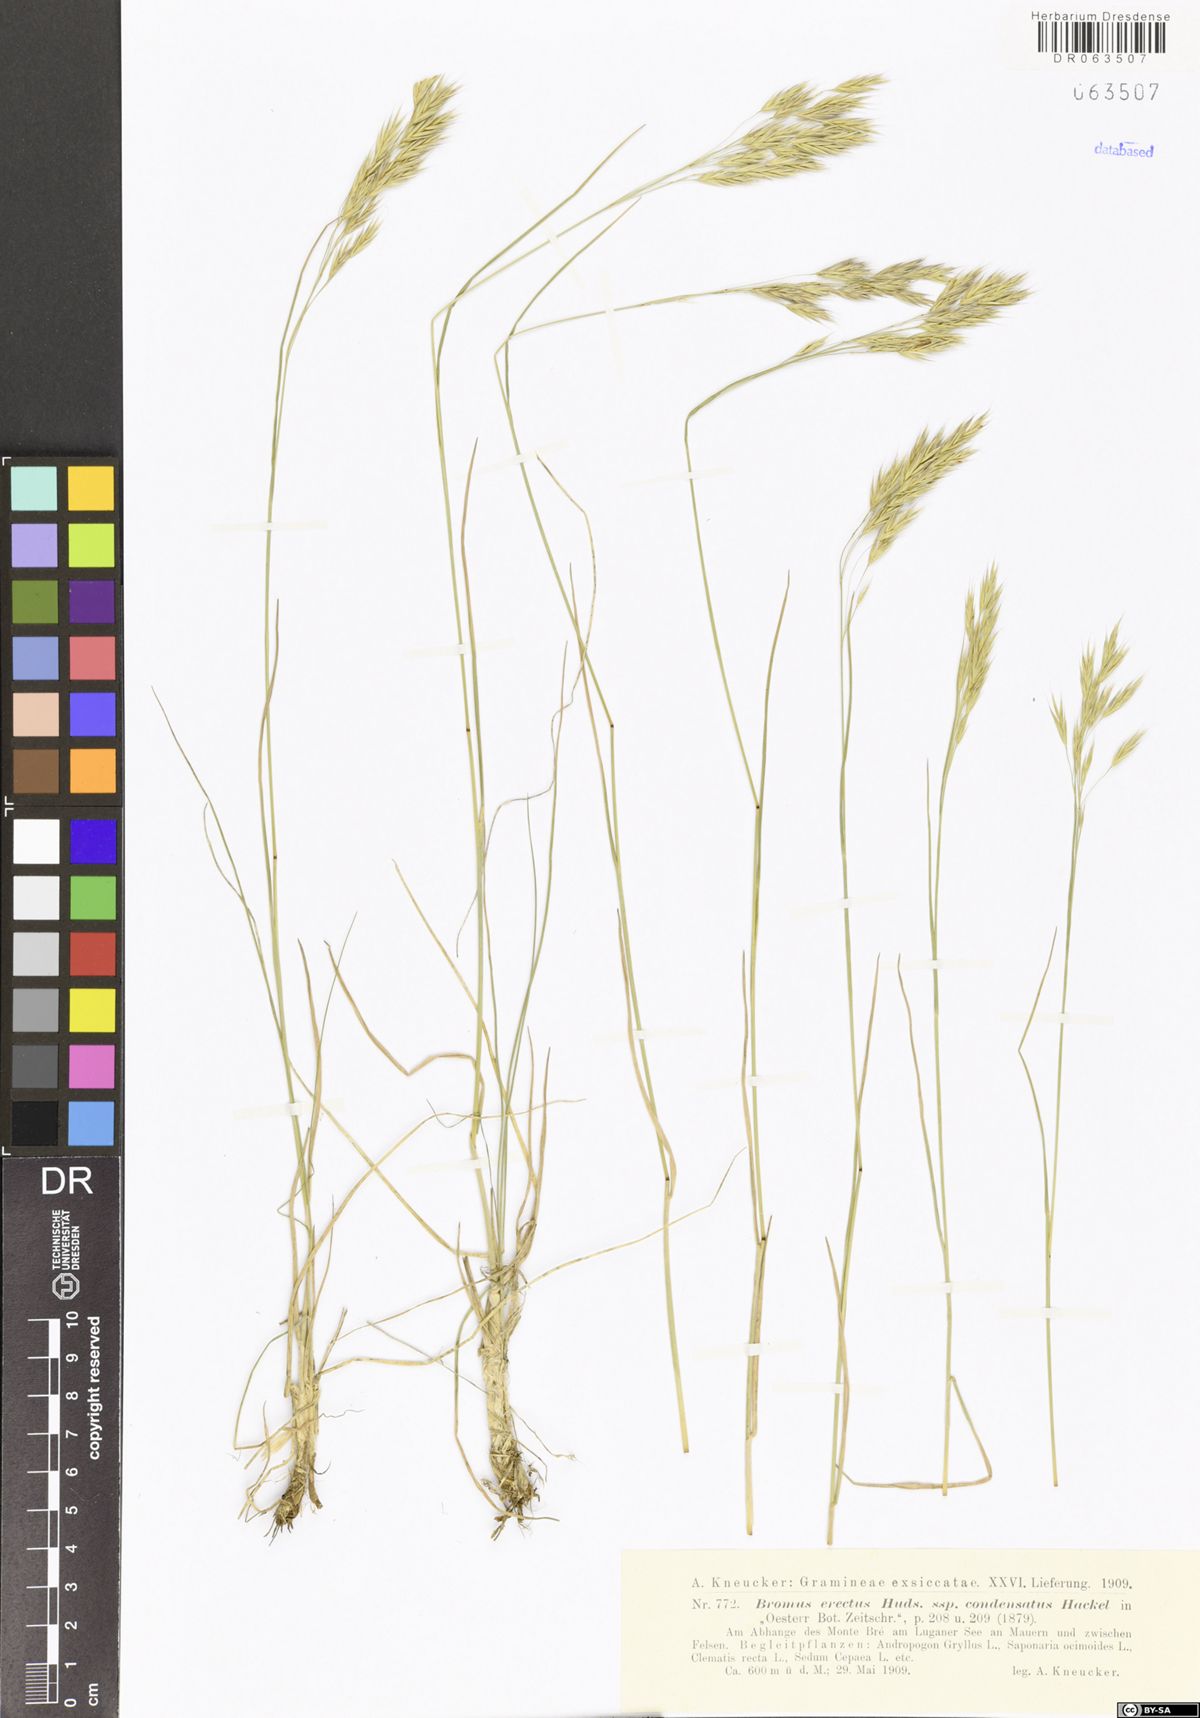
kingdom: Plantae
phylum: Tracheophyta
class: Liliopsida
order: Poales
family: Poaceae
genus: Bromus
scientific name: Bromus erectus
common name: Erect brome
